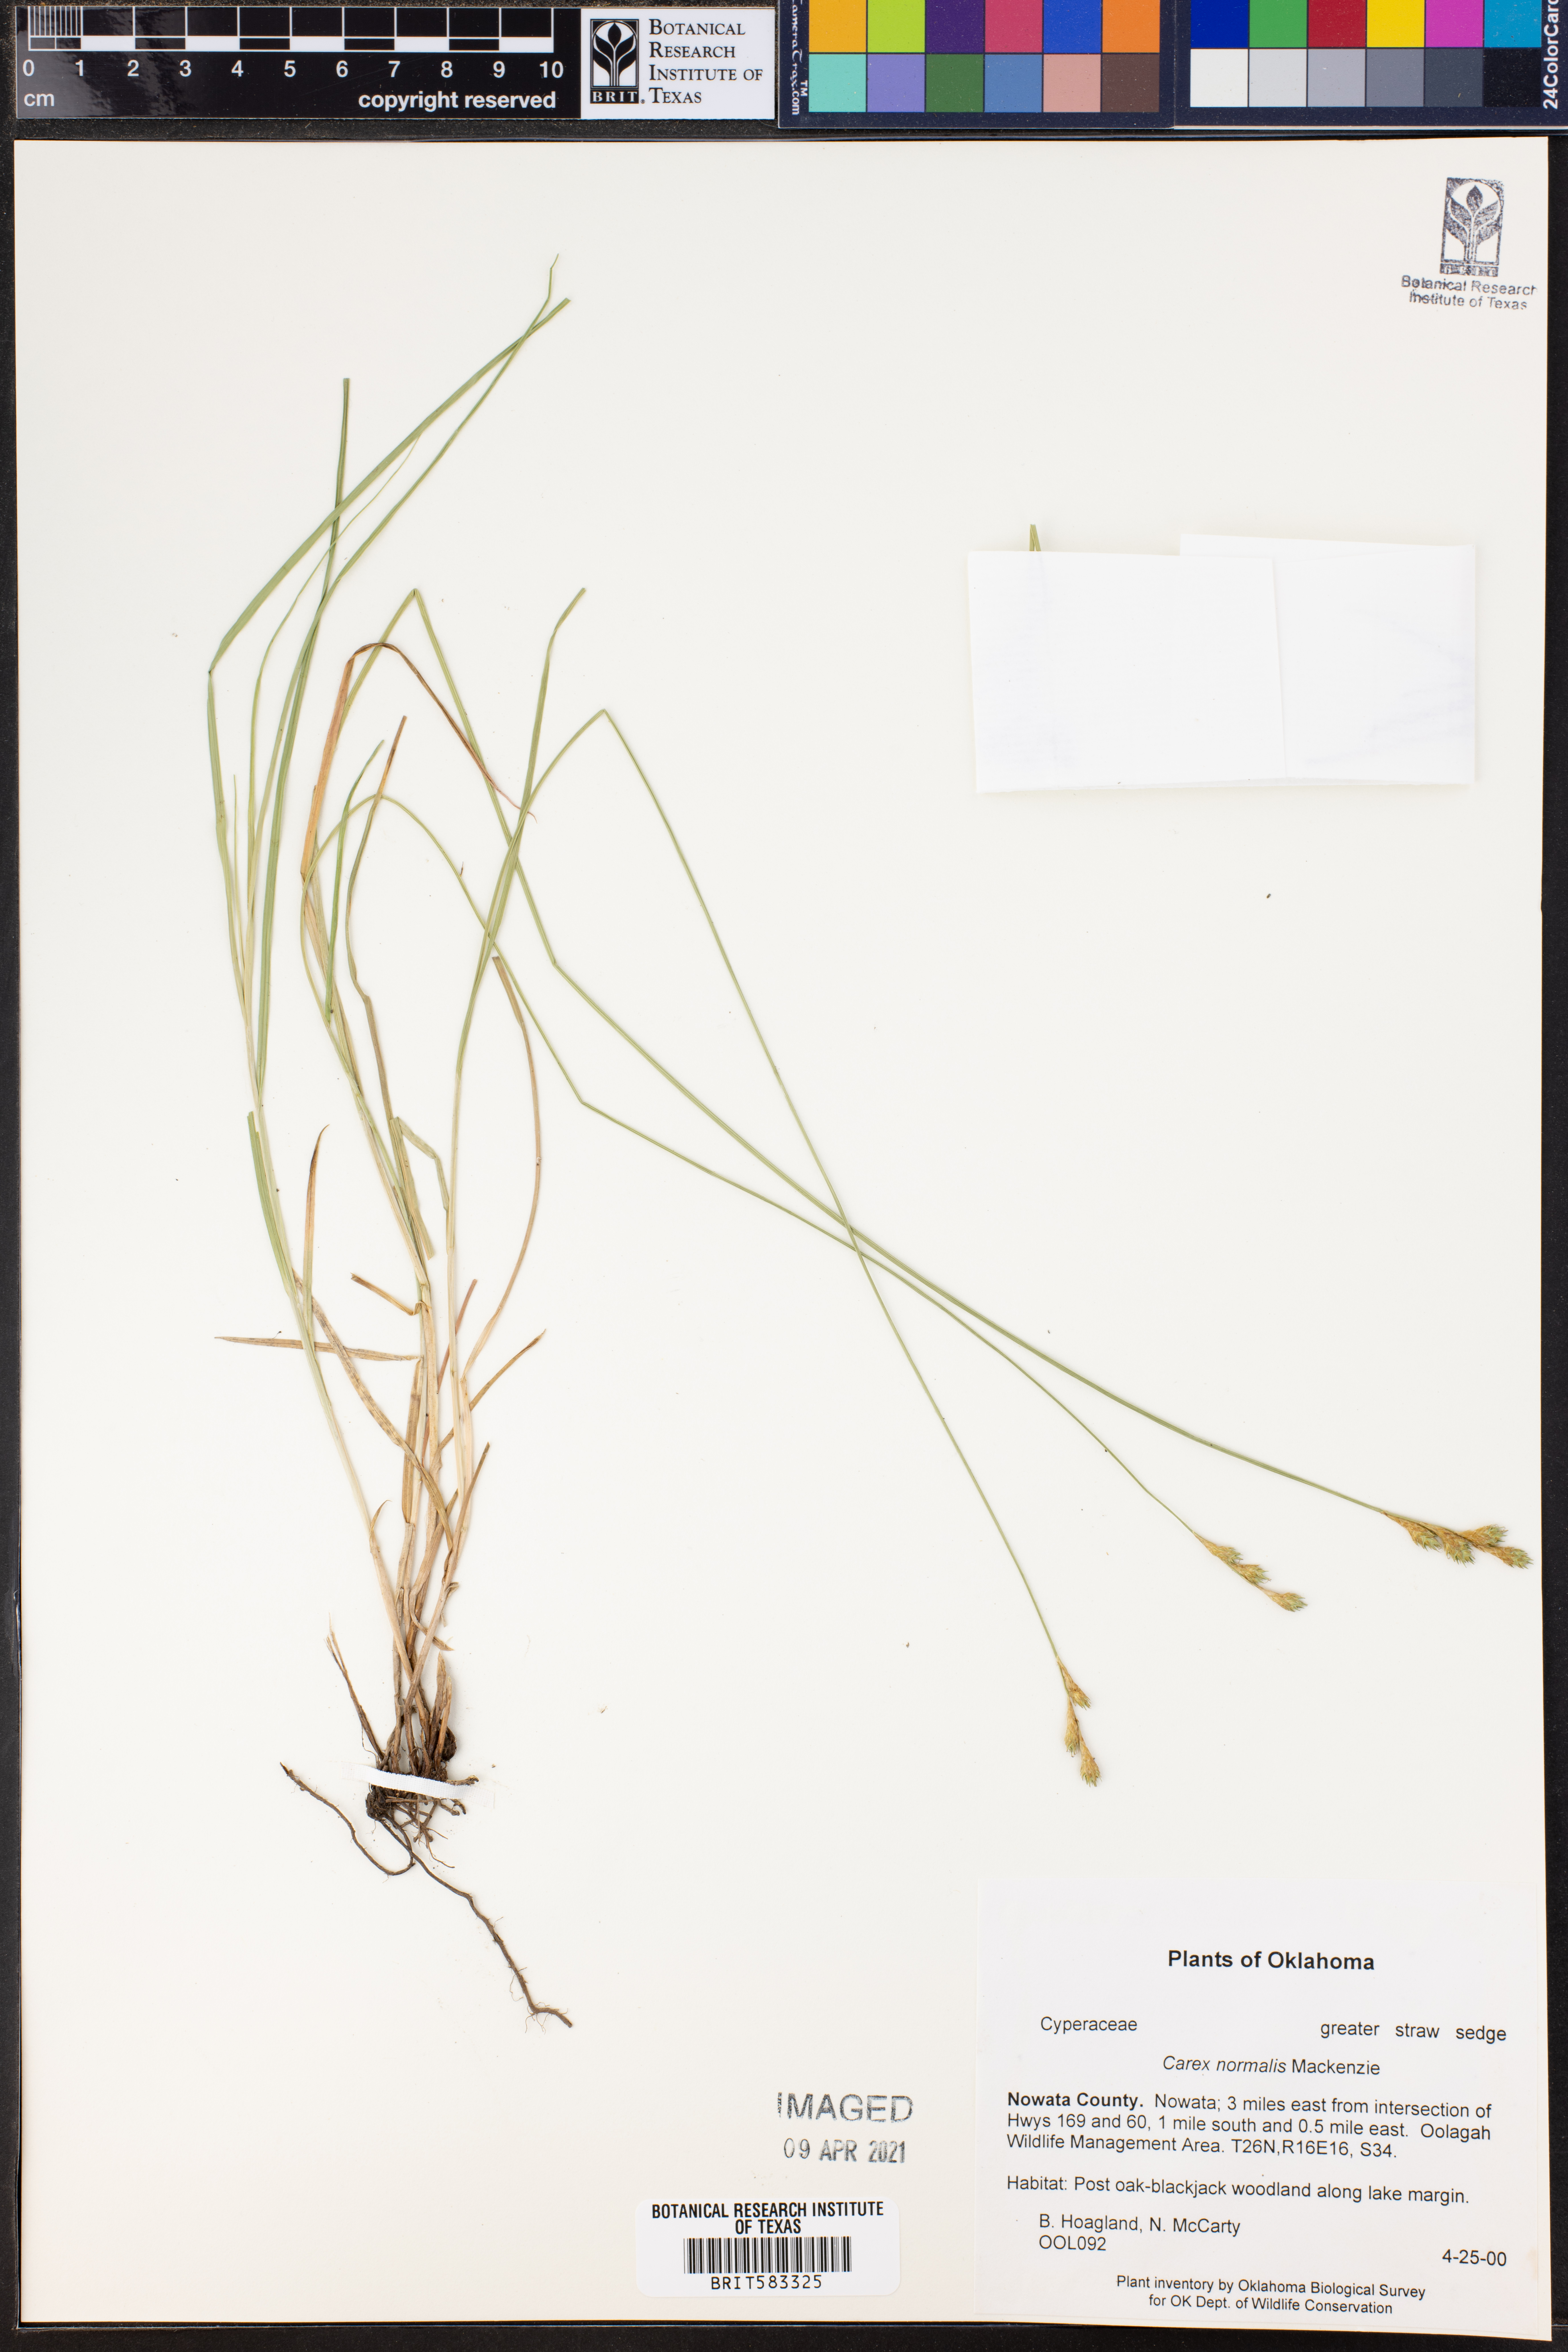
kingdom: Plantae
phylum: Tracheophyta
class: Liliopsida
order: Poales
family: Cyperaceae
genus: Carex
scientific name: Carex normalis
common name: Greater straw sedge
